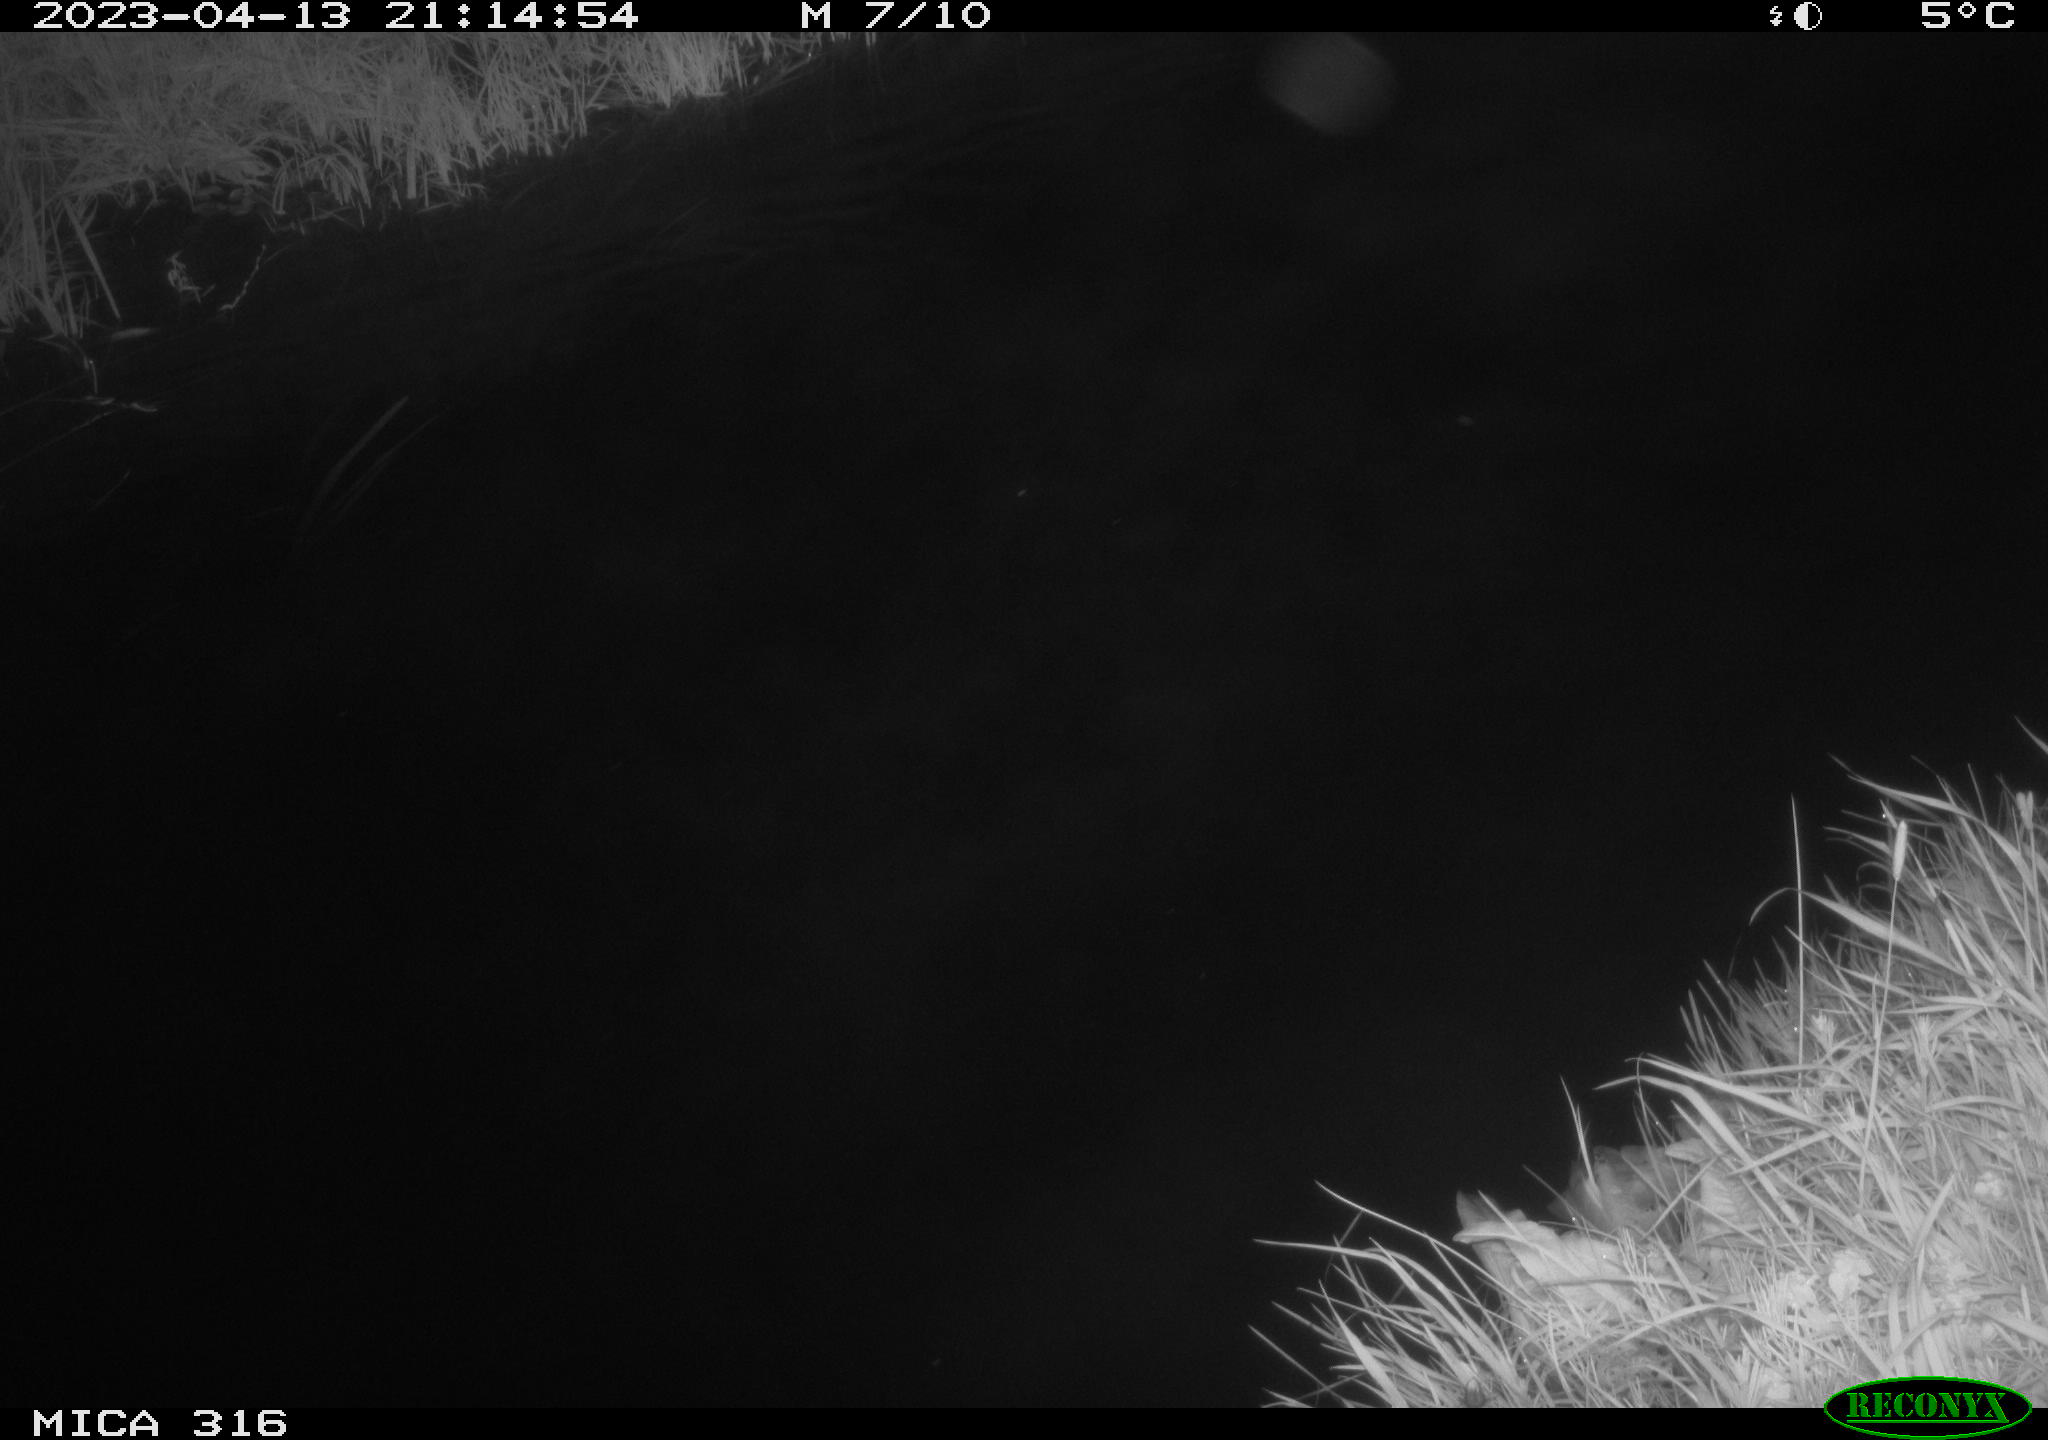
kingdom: Animalia
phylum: Chordata
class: Aves
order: Anseriformes
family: Anatidae
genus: Anas
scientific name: Anas
